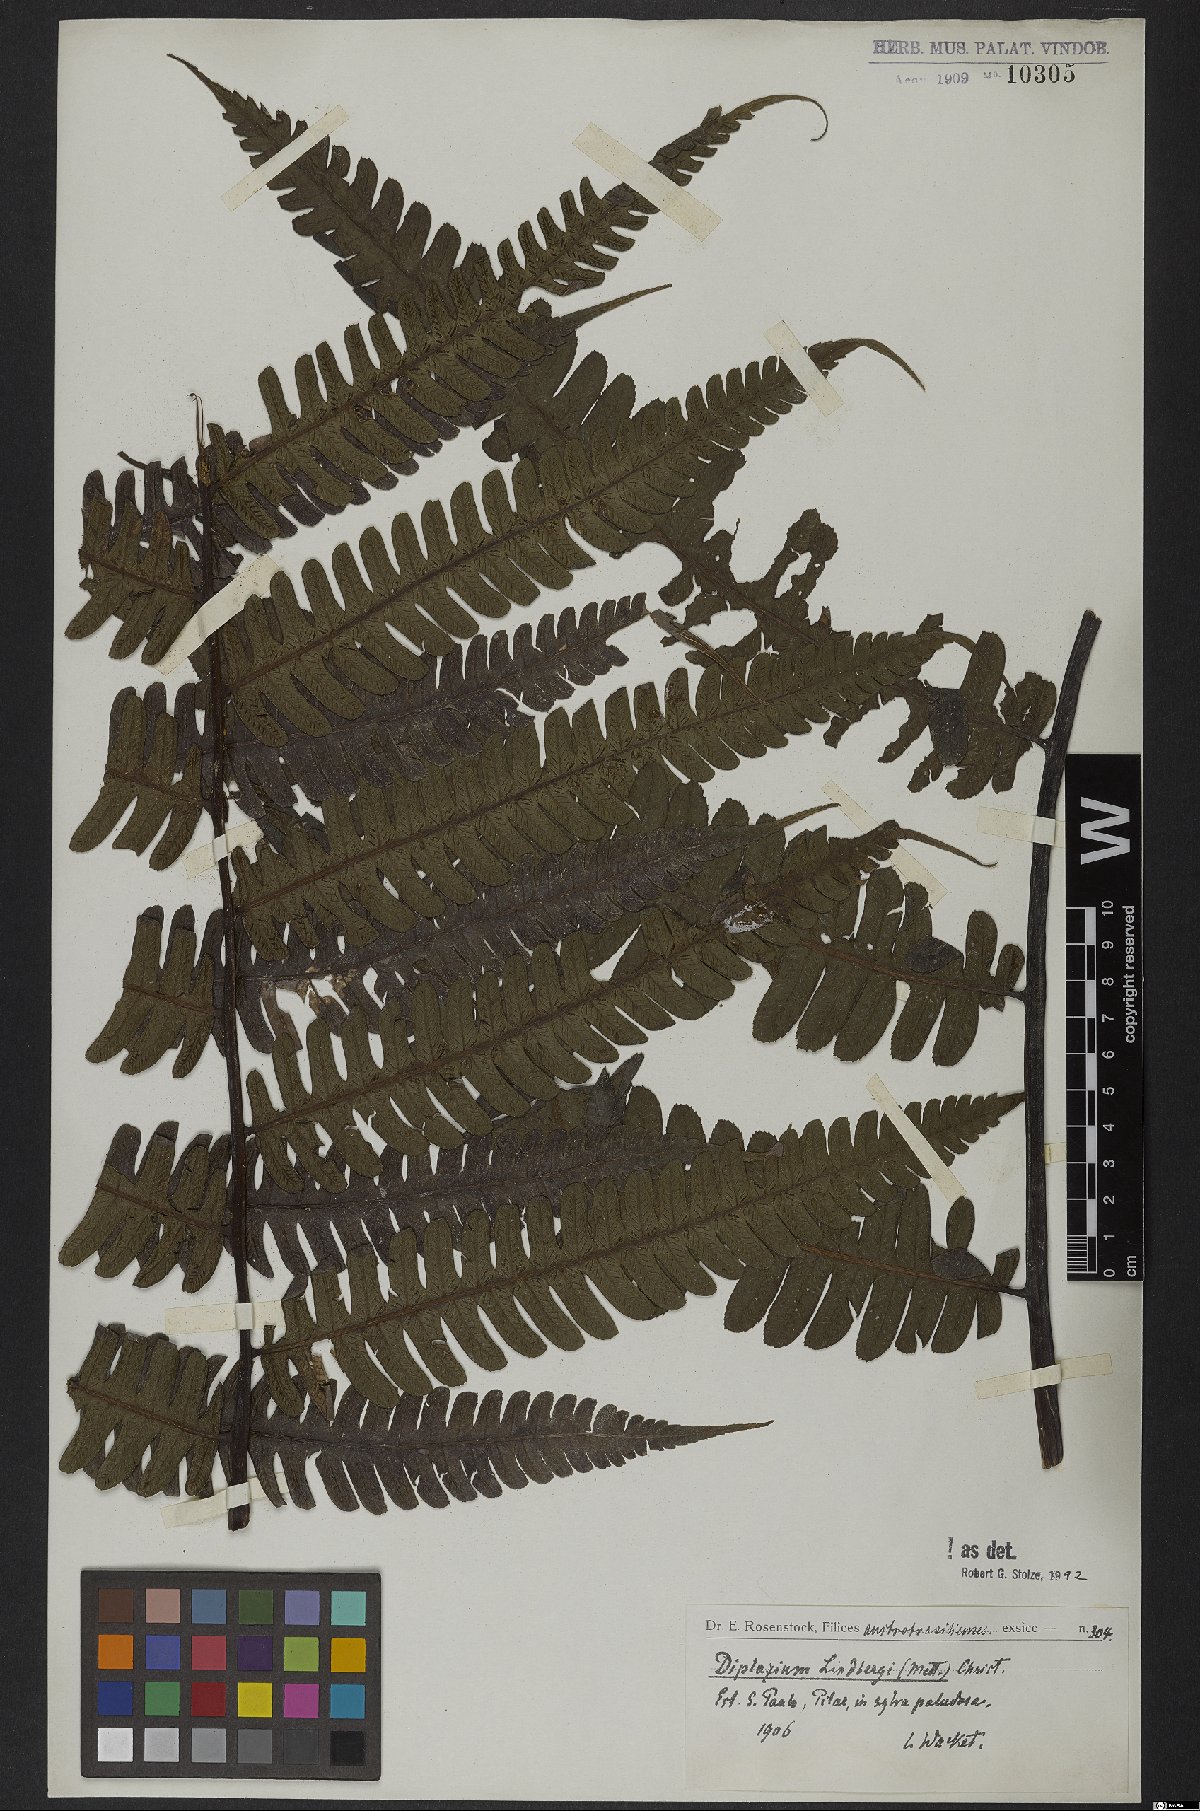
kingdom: Plantae
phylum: Tracheophyta
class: Polypodiopsida
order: Polypodiales
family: Athyriaceae
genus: Diplazium
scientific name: Diplazium lindbergii
